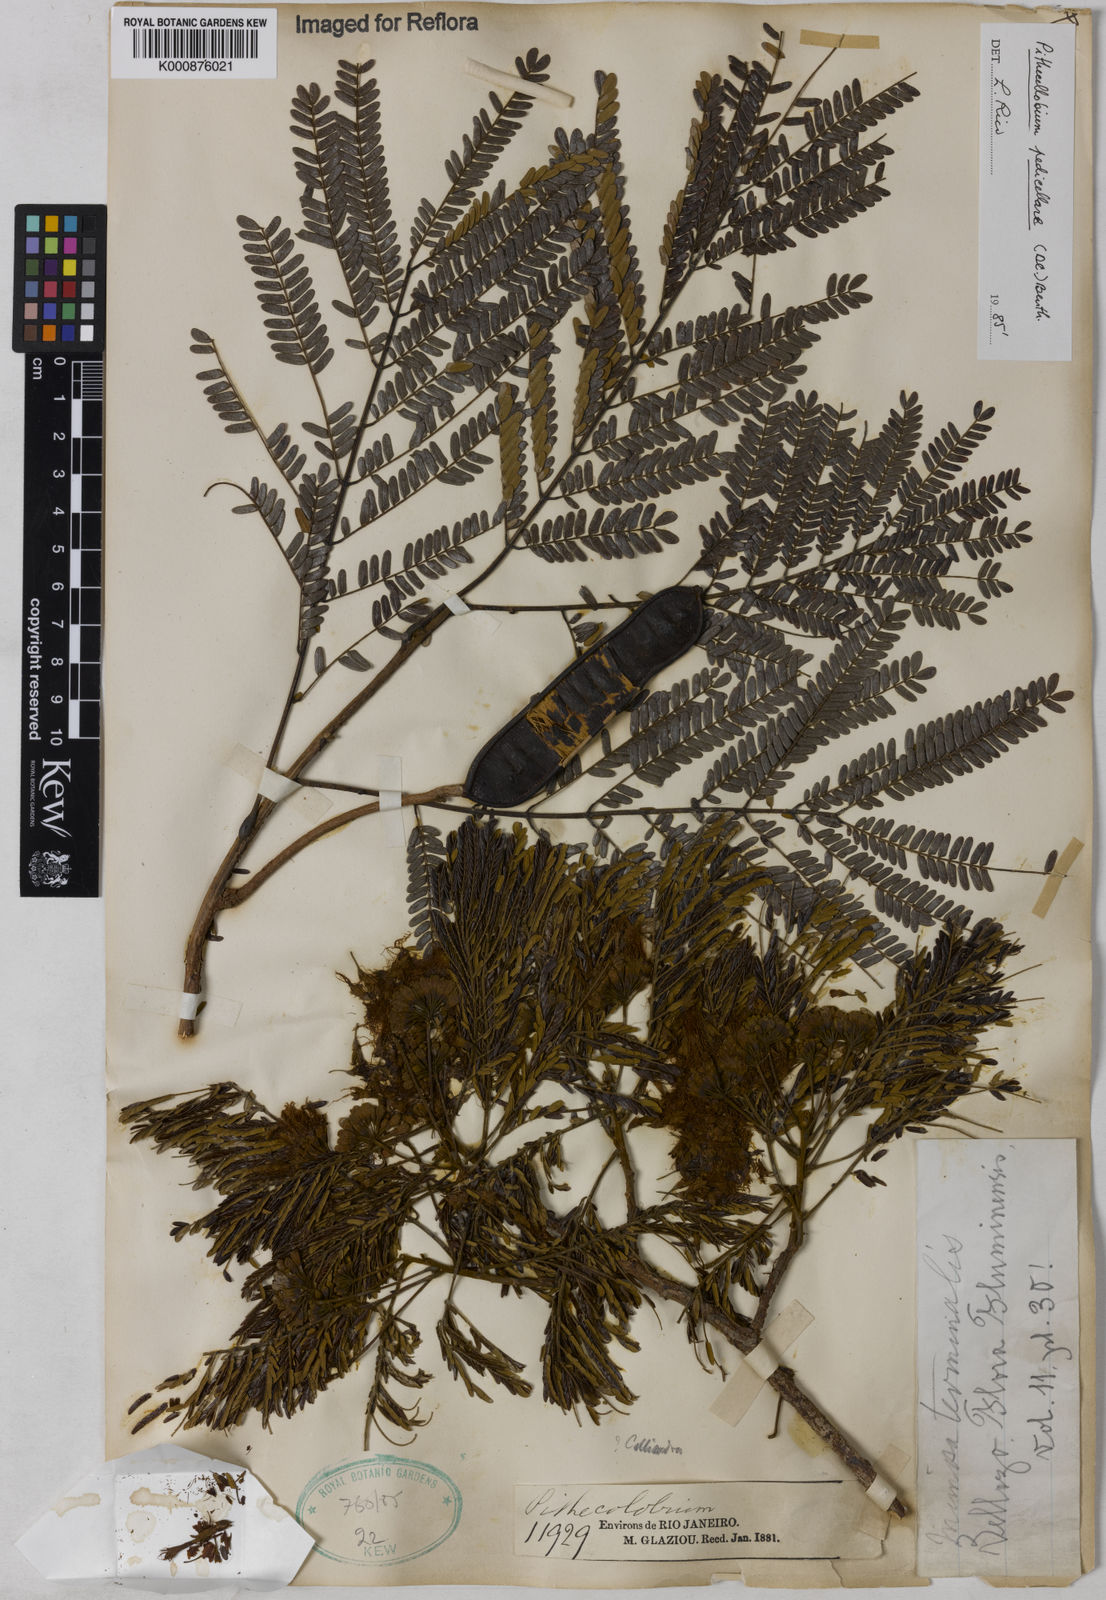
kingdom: Plantae
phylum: Tracheophyta
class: Magnoliopsida
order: Fabales
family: Fabaceae
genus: Balizia
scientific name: Balizia pedicellaris
